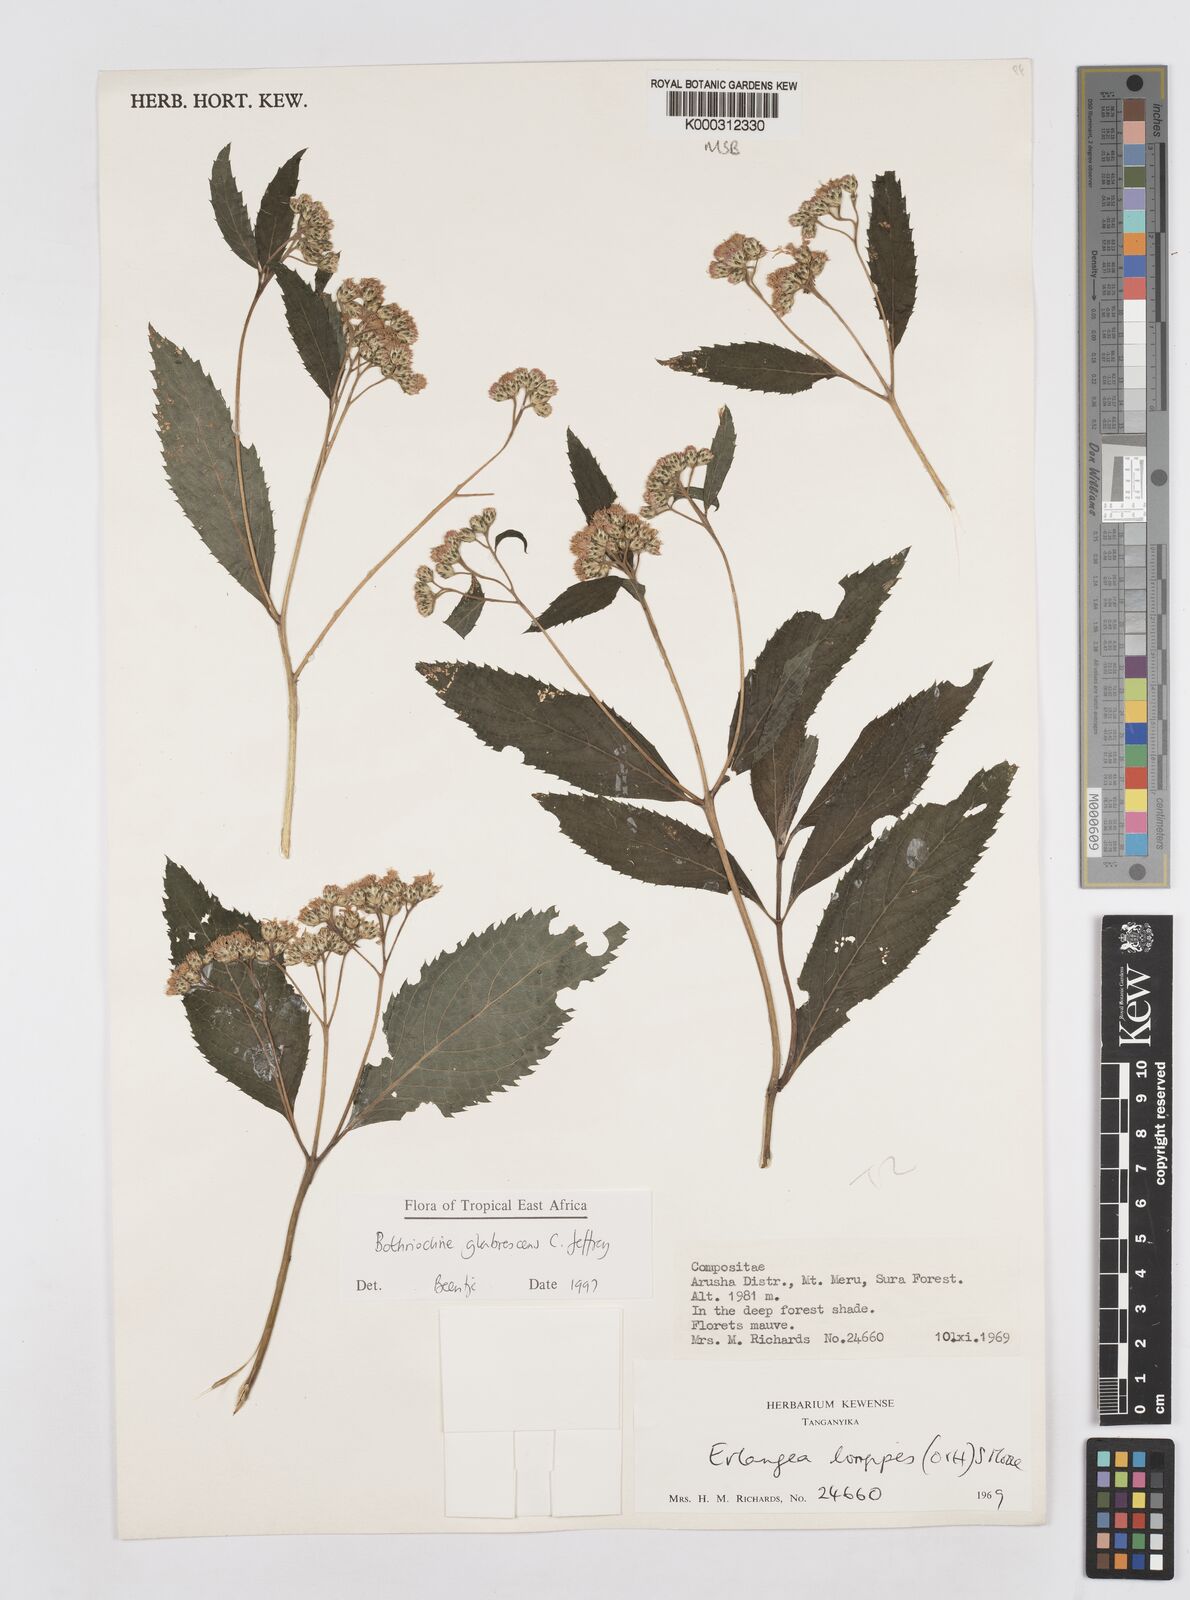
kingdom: Plantae
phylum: Tracheophyta
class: Magnoliopsida
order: Asterales
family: Asteraceae
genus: Bothriocline
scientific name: Bothriocline glabrescens
